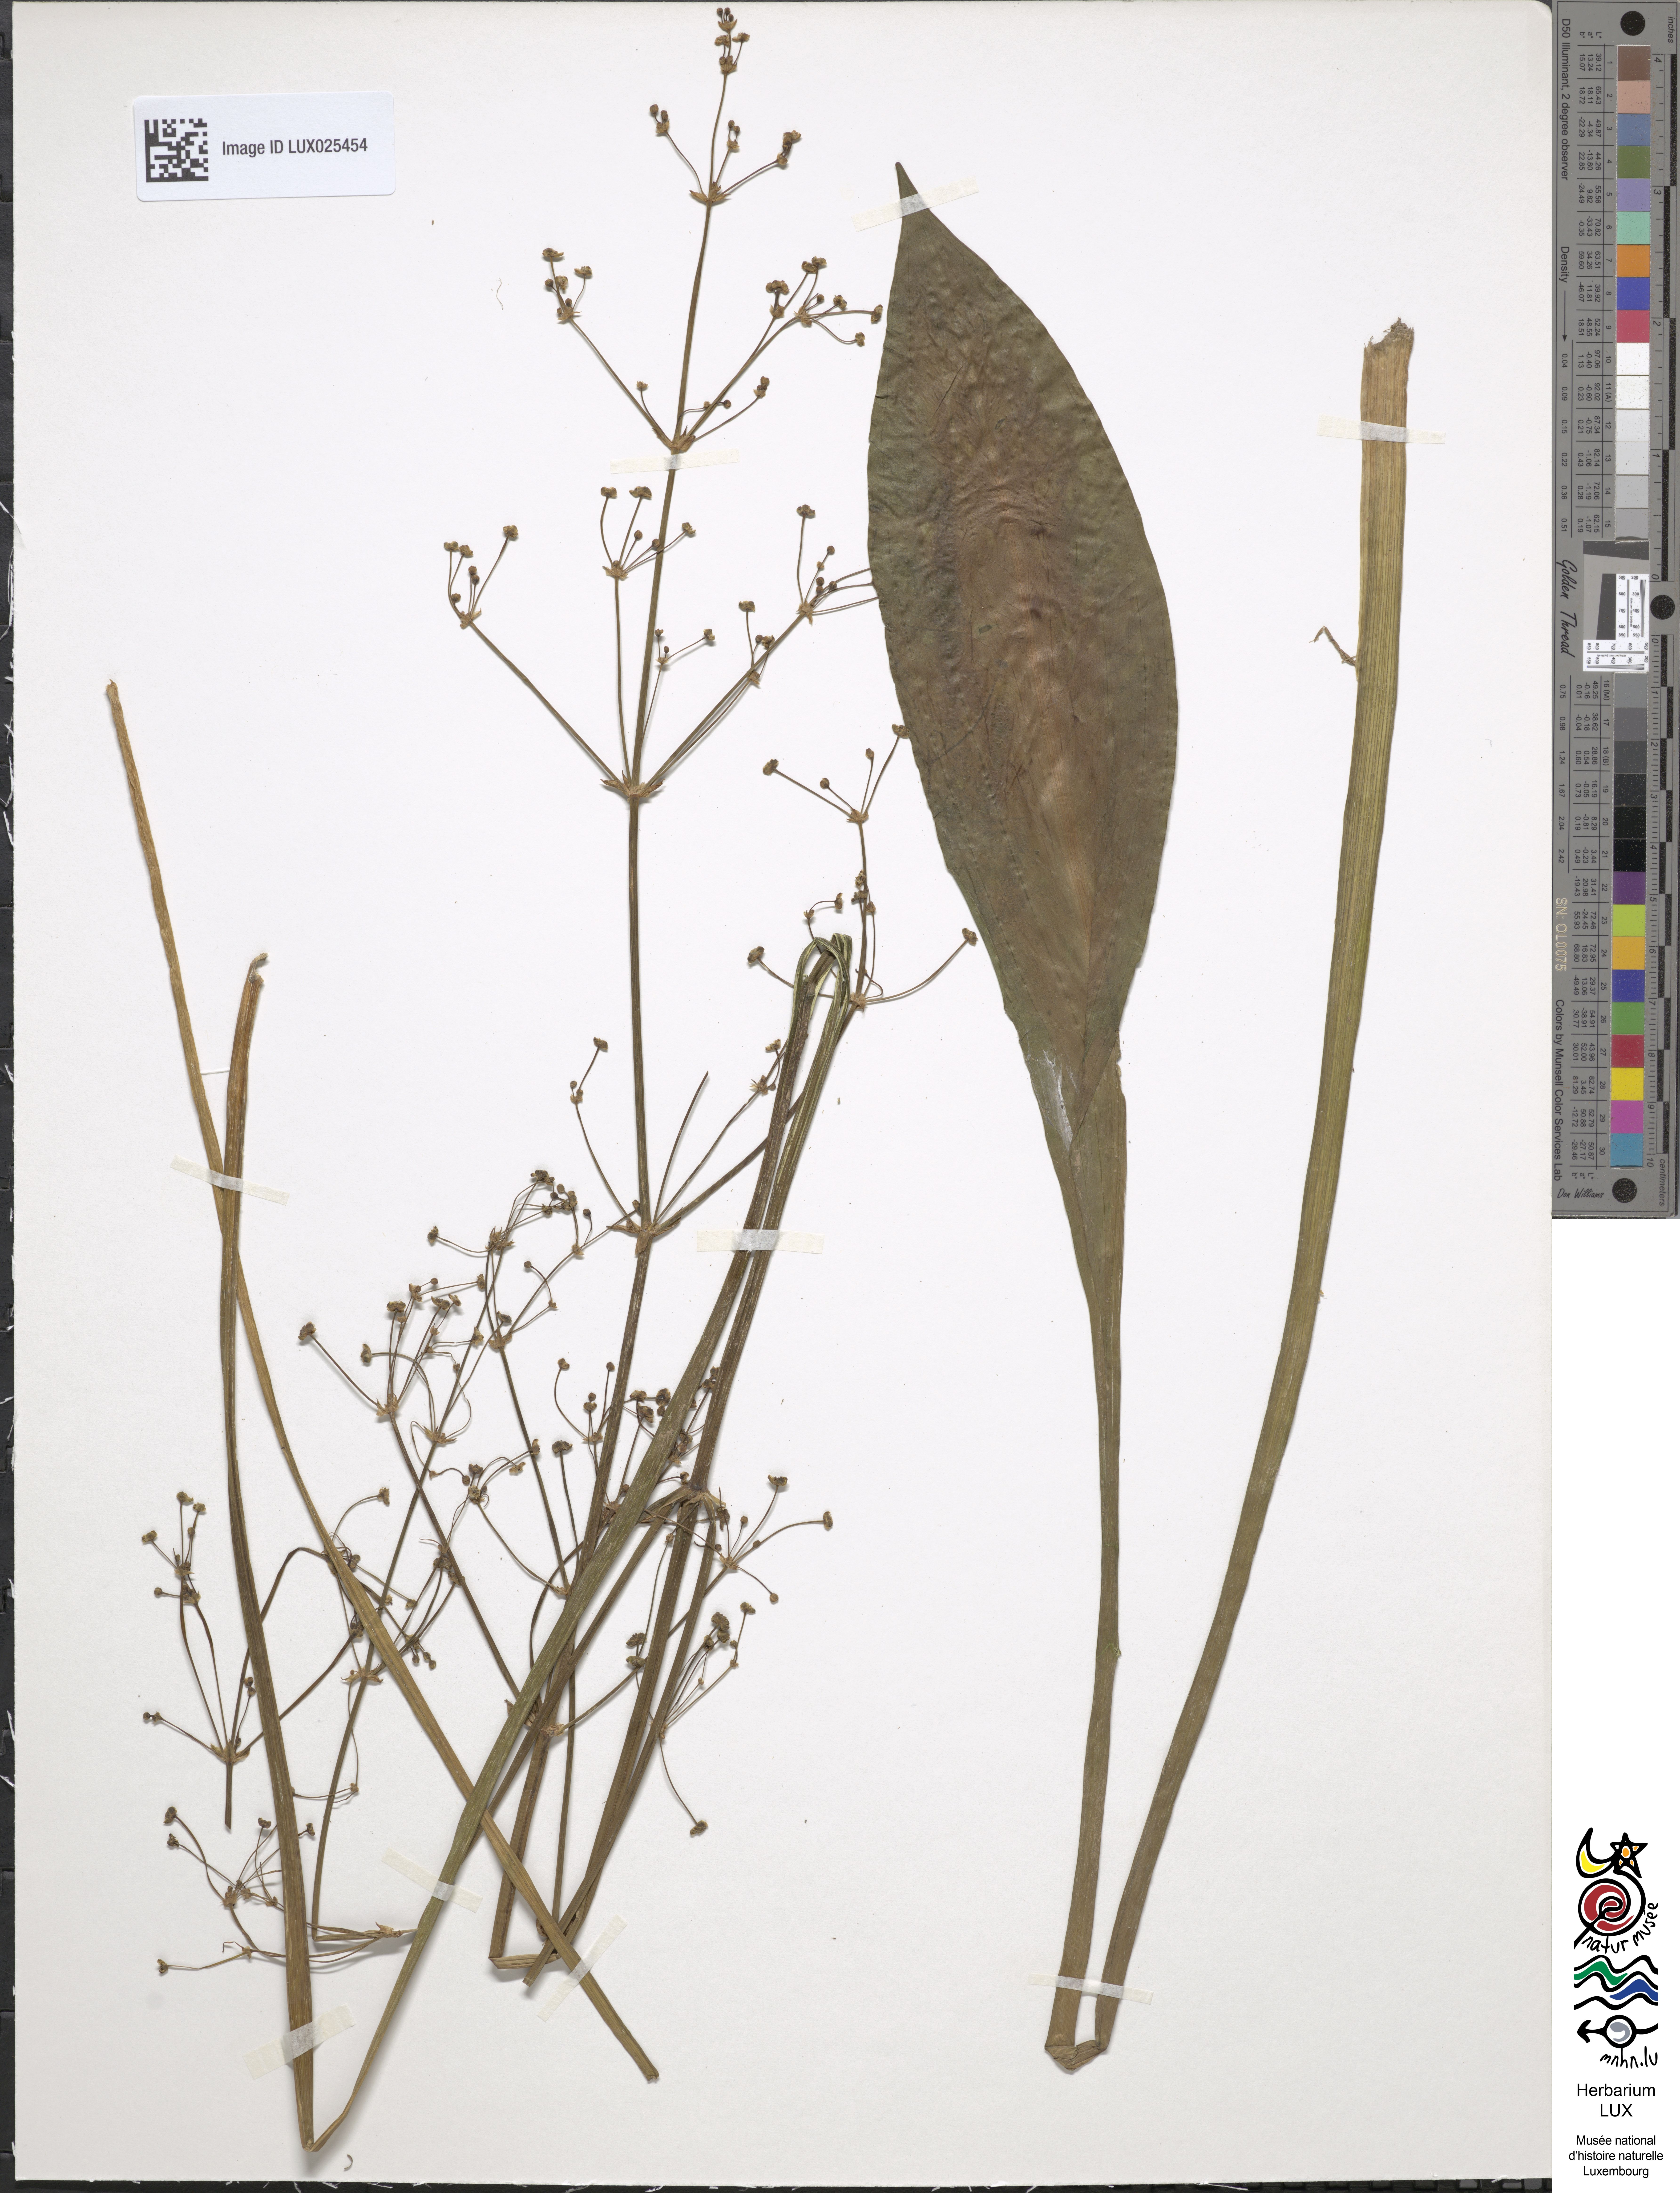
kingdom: Plantae
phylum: Tracheophyta
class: Liliopsida
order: Alismatales
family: Alismataceae
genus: Alisma
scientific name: Alisma plantago-aquatica
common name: Water-plantain
